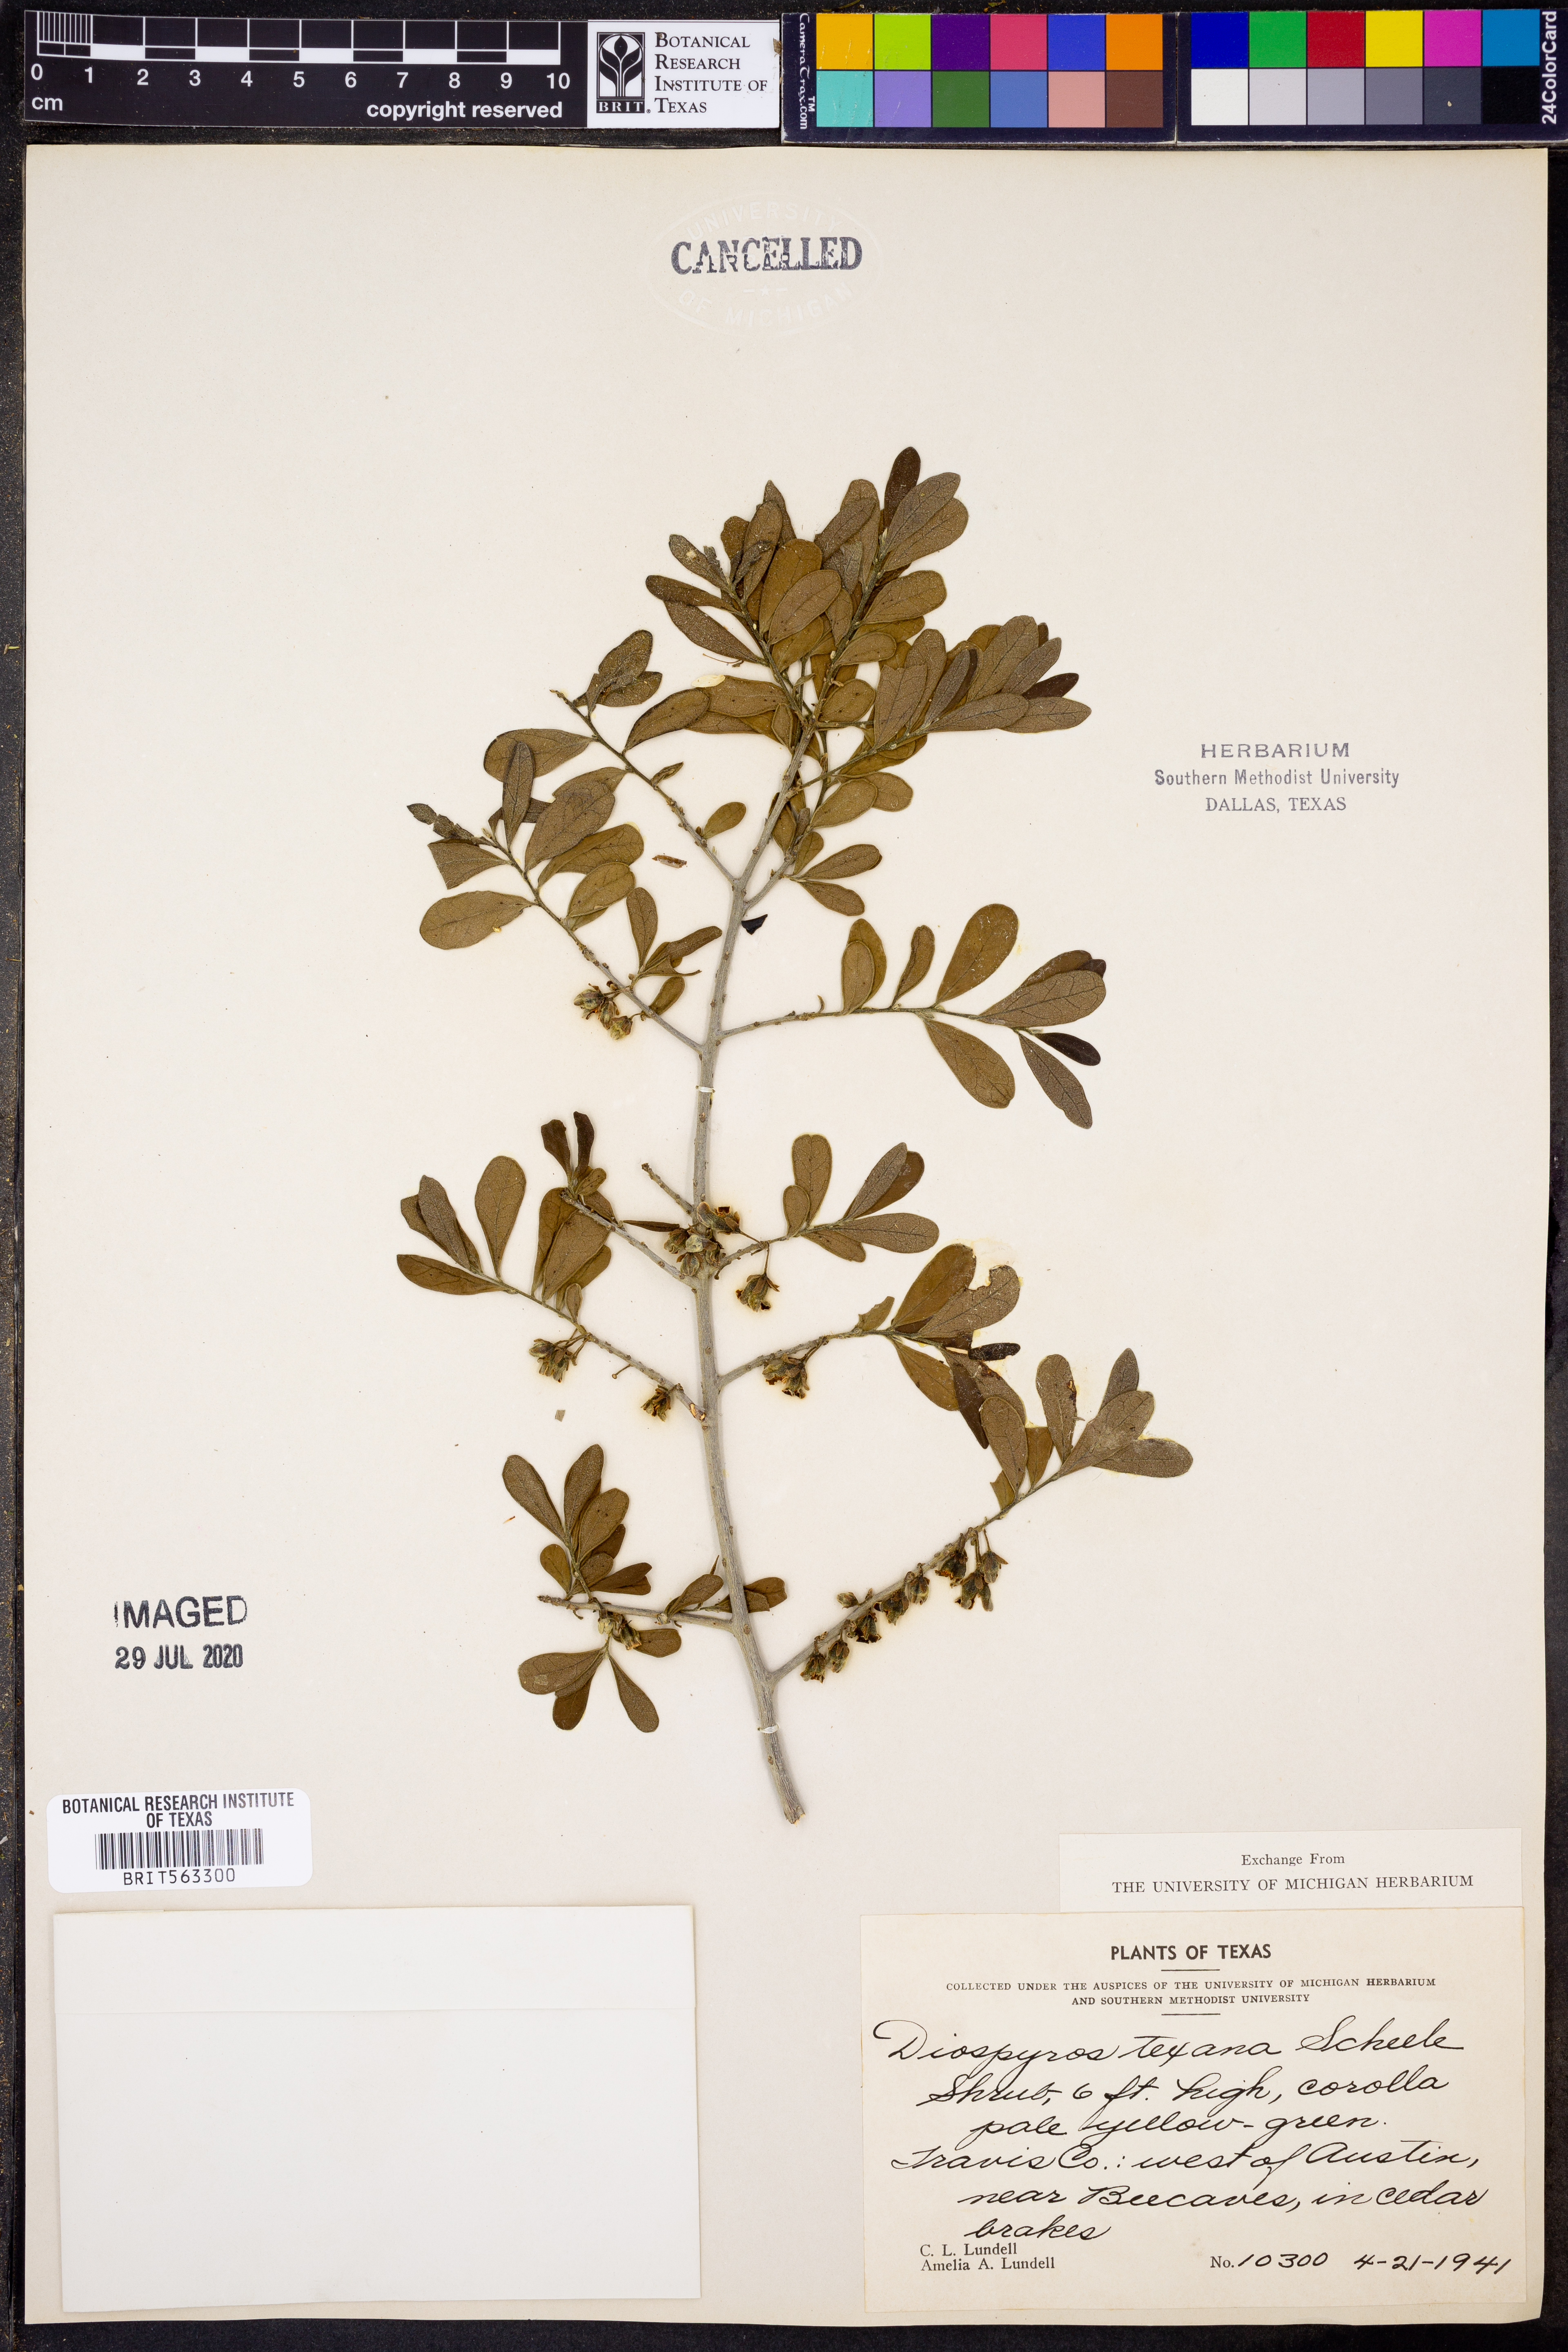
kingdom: Plantae
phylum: Tracheophyta
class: Magnoliopsida
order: Ericales
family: Ebenaceae
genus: Diospyros
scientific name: Diospyros texana
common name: Texas persimmon
